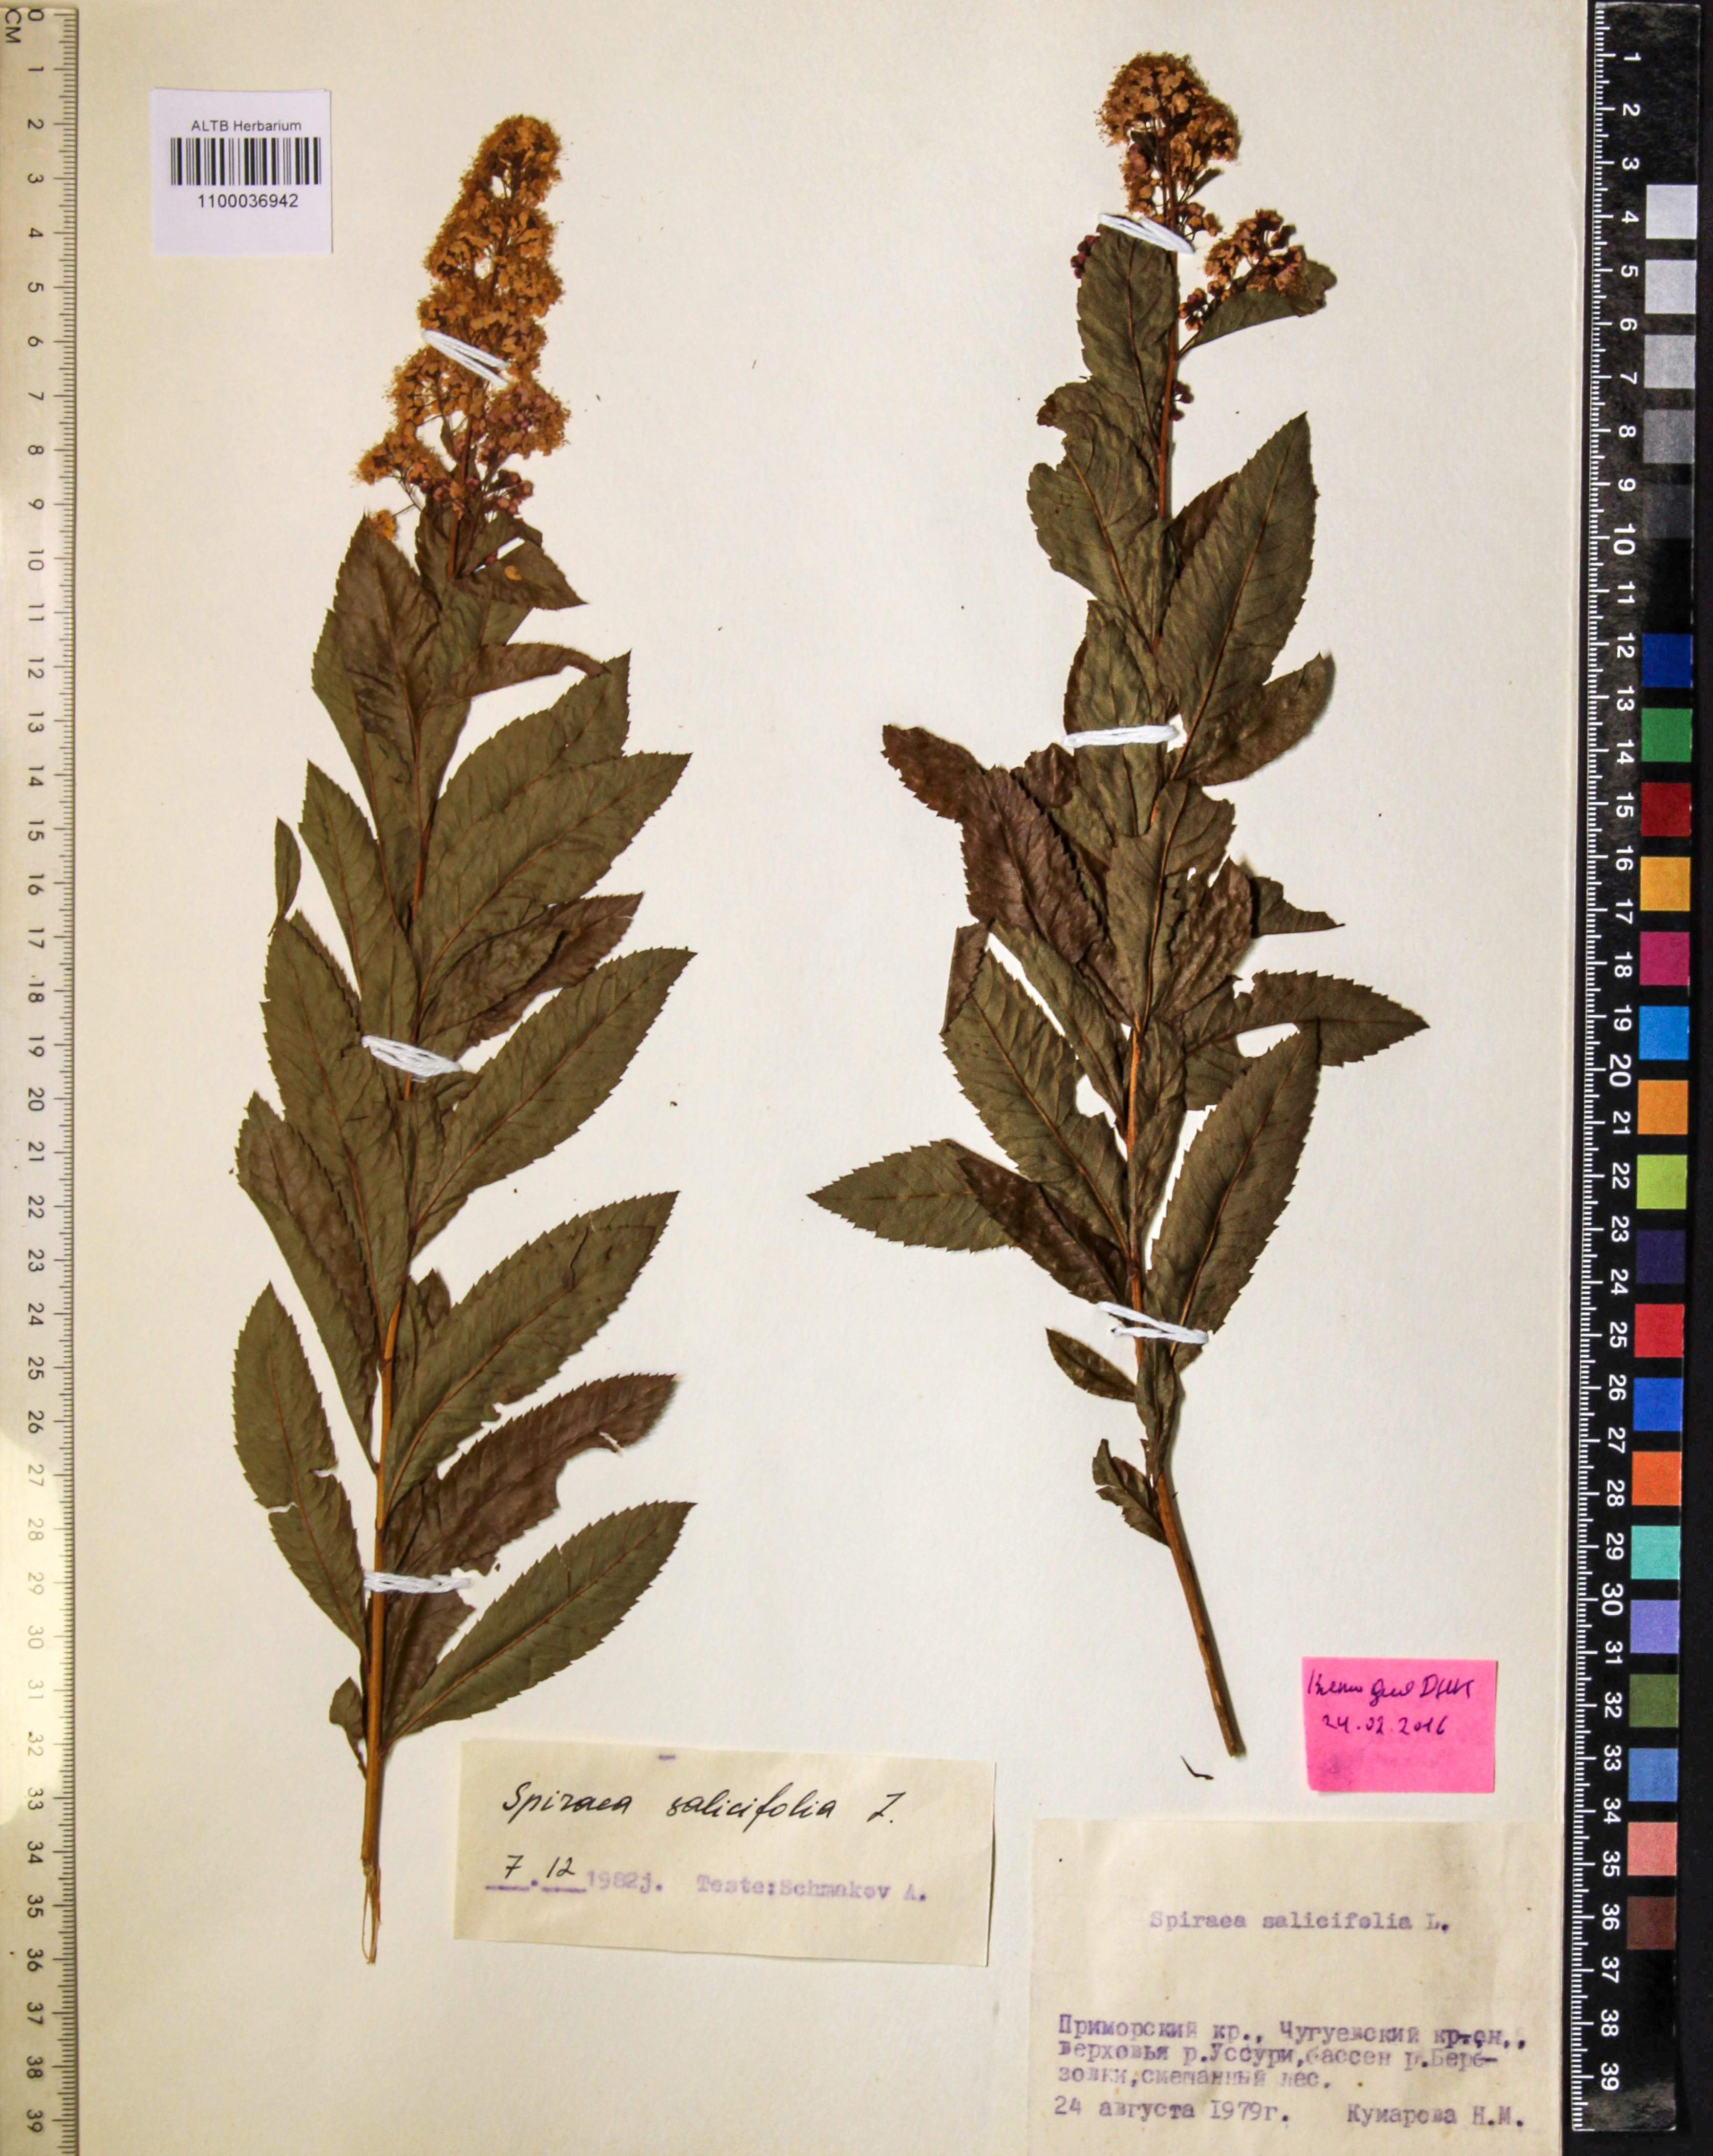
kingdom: Plantae
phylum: Tracheophyta
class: Magnoliopsida
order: Rosales
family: Rosaceae
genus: Spiraea
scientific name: Spiraea salicifolia
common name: Bridewort
